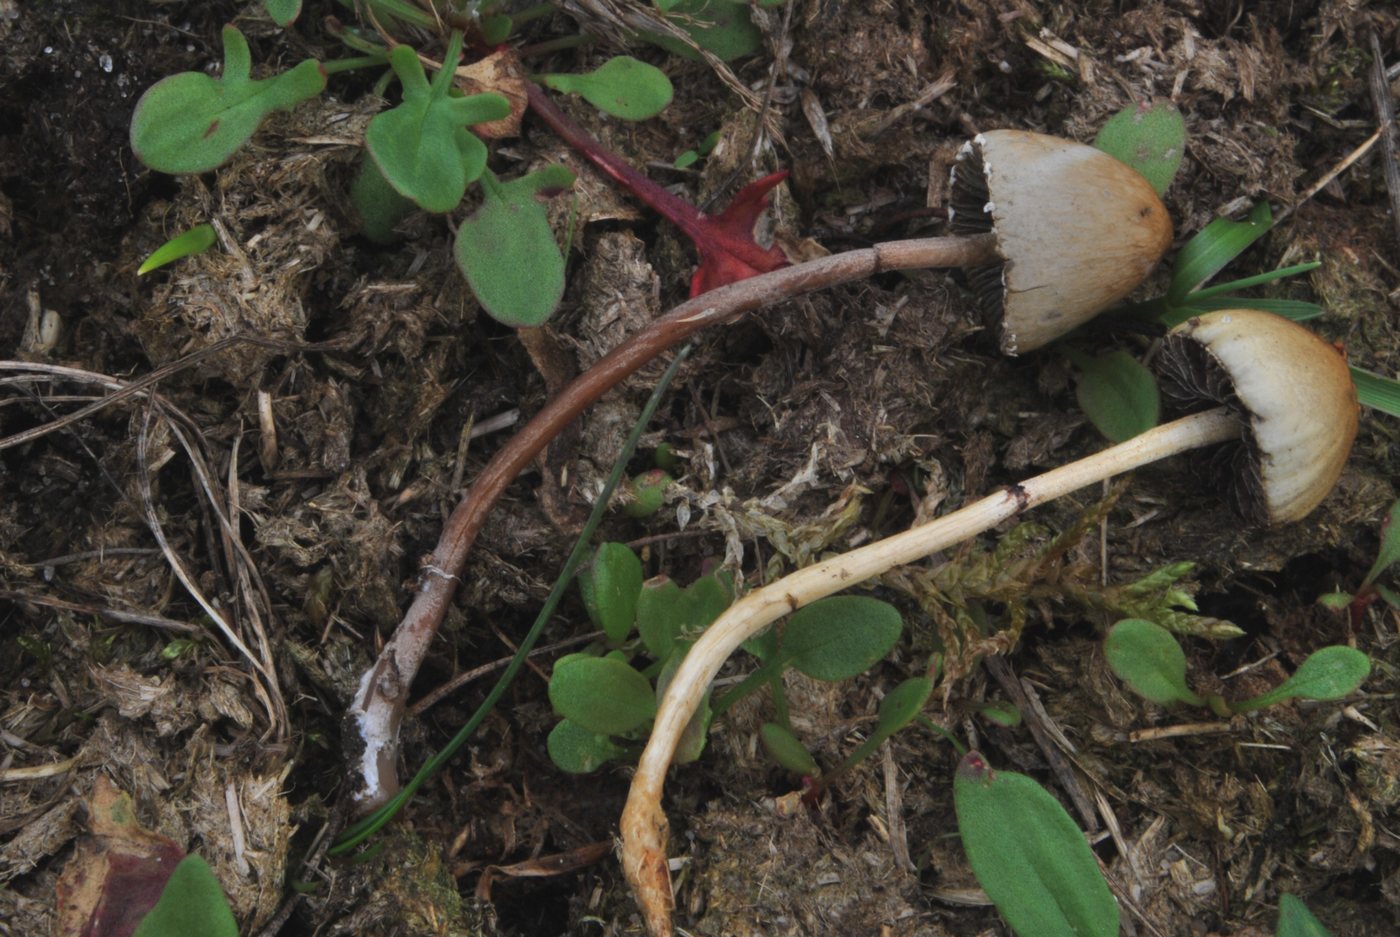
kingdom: Fungi
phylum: Basidiomycota
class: Agaricomycetes
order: Agaricales
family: Strophariaceae
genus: Protostropharia
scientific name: Protostropharia semiglobata
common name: halvkugleformet bredblad
